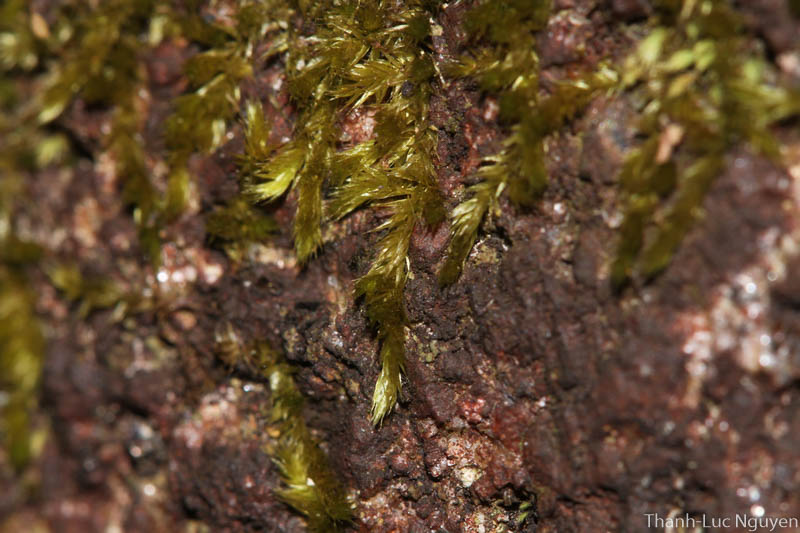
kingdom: Plantae
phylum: Bryophyta
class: Bryopsida
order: Hypnales
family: Sematophyllaceae
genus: Sematophyllum
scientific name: Sematophyllum subhumile
